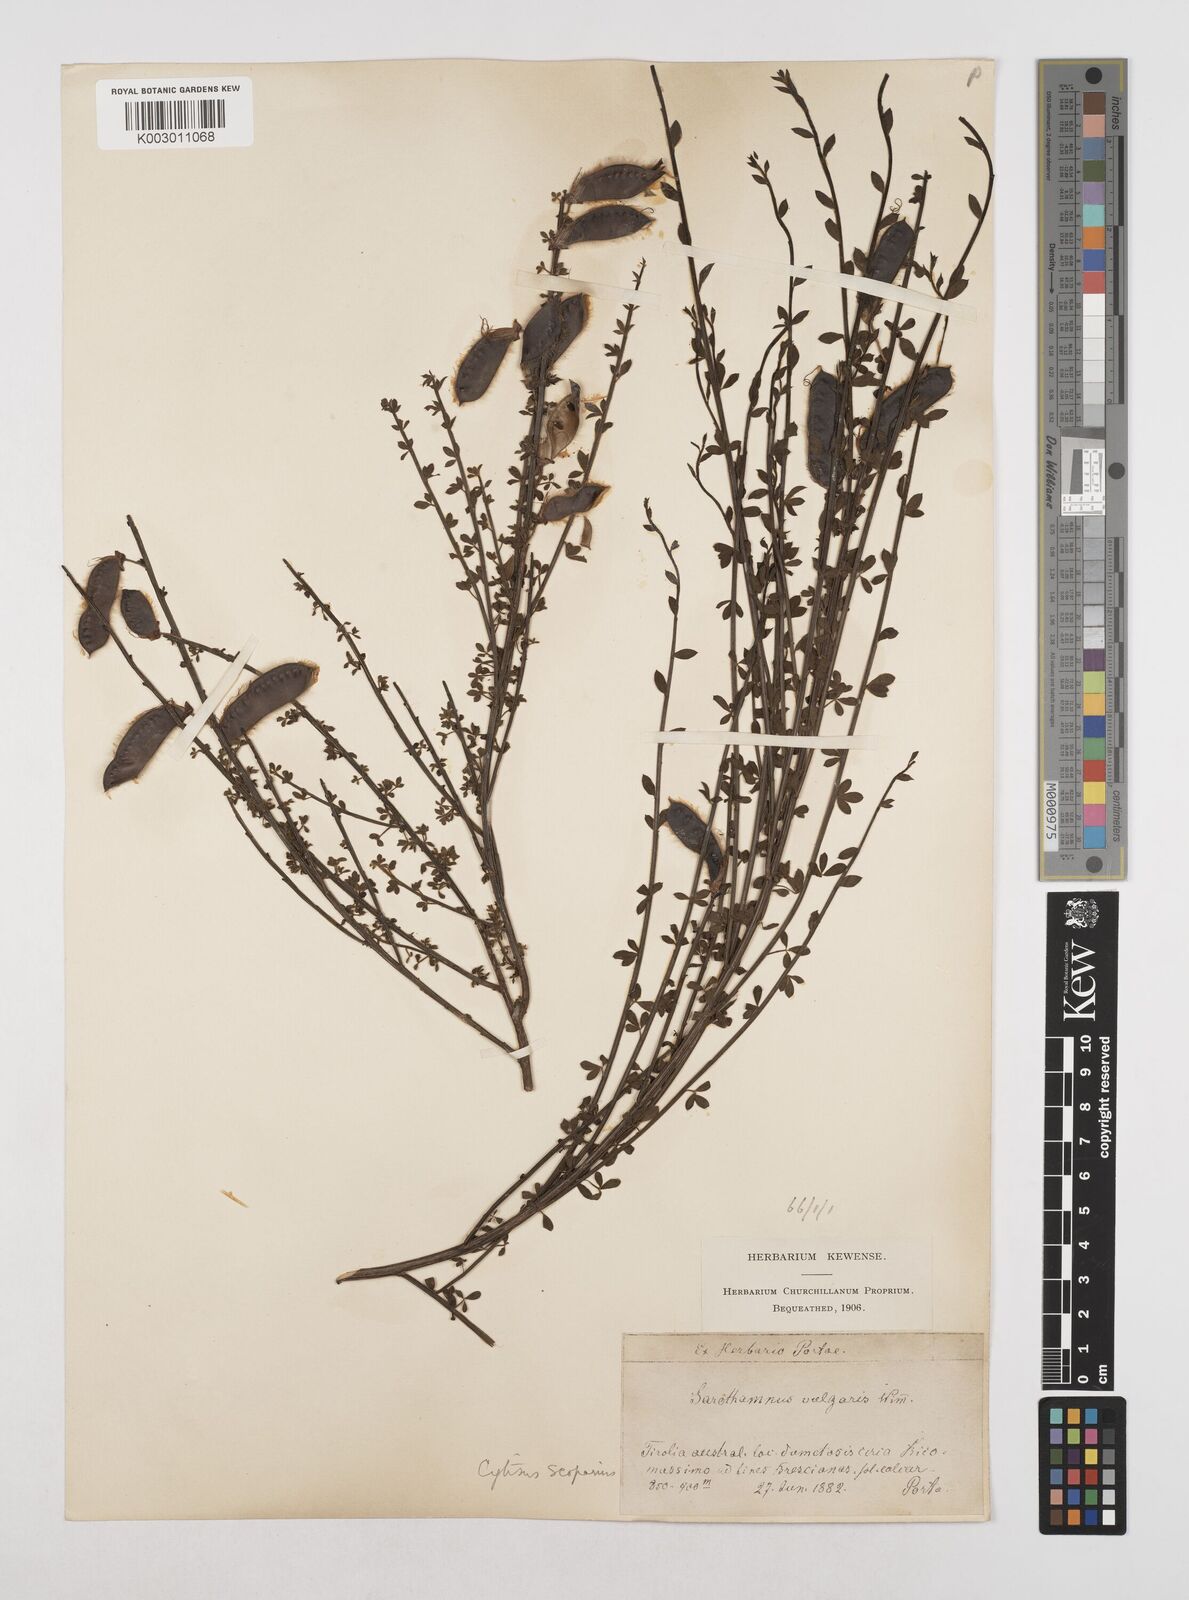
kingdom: Plantae
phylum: Tracheophyta
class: Magnoliopsida
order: Fabales
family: Fabaceae
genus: Cytisus
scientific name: Cytisus scoparius
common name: Scotch broom
